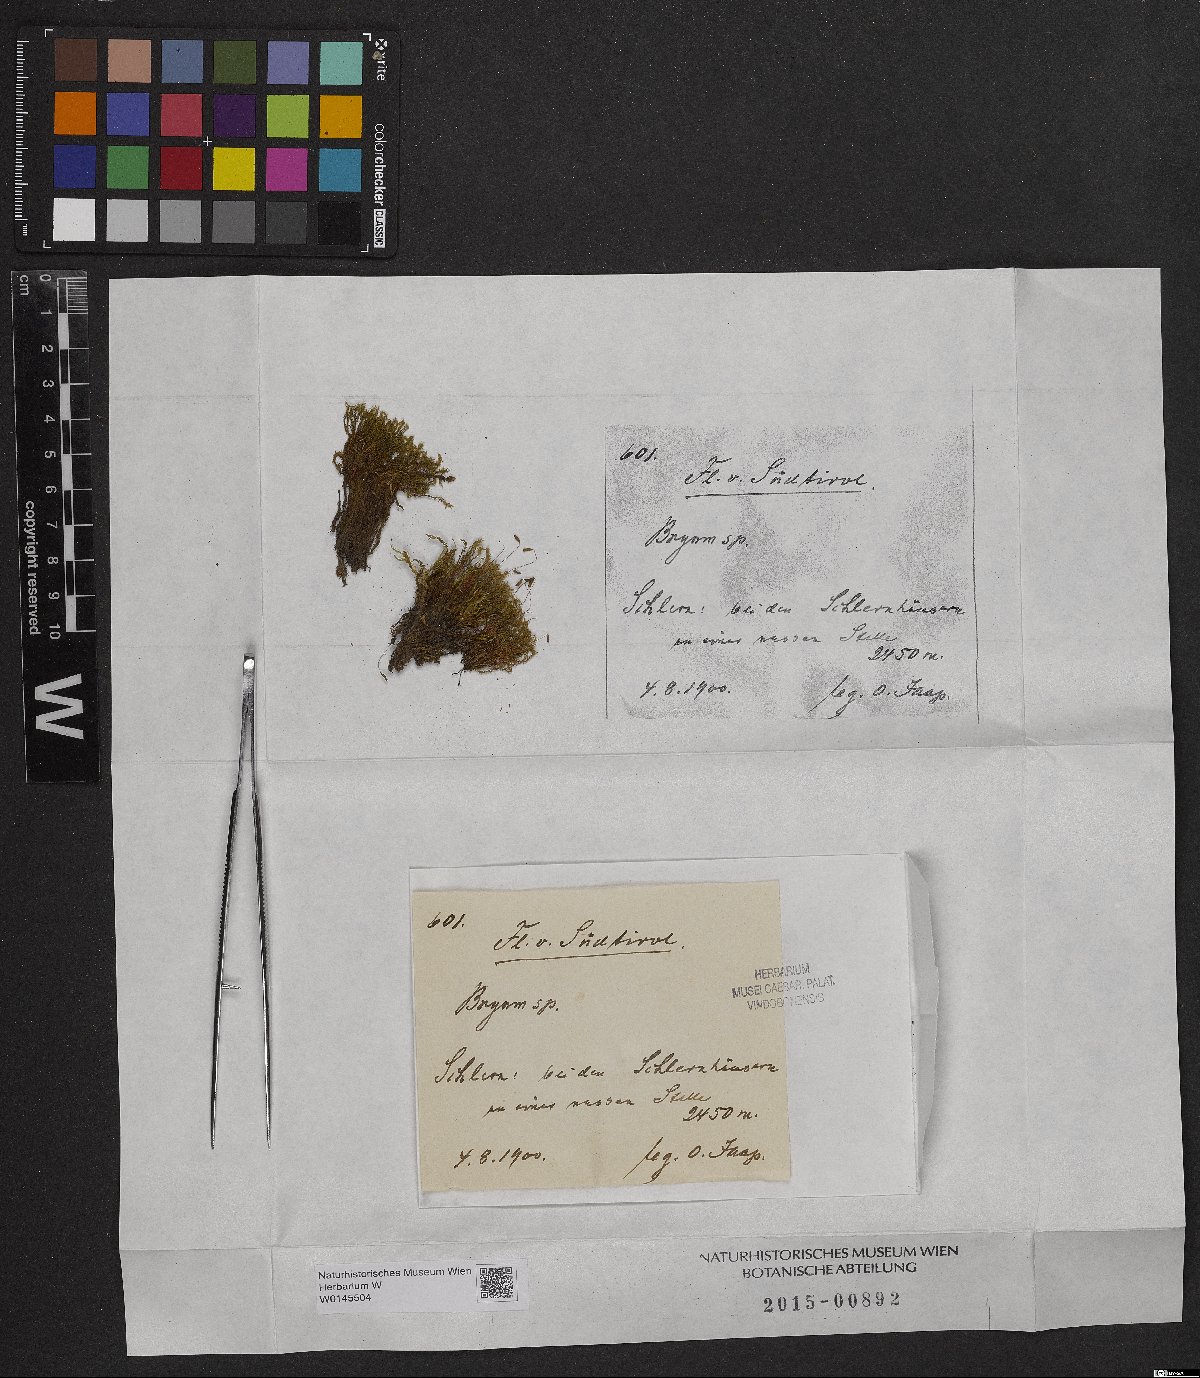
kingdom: Plantae
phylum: Bryophyta
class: Bryopsida
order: Bryales
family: Bryaceae
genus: Bryum
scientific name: Bryum
